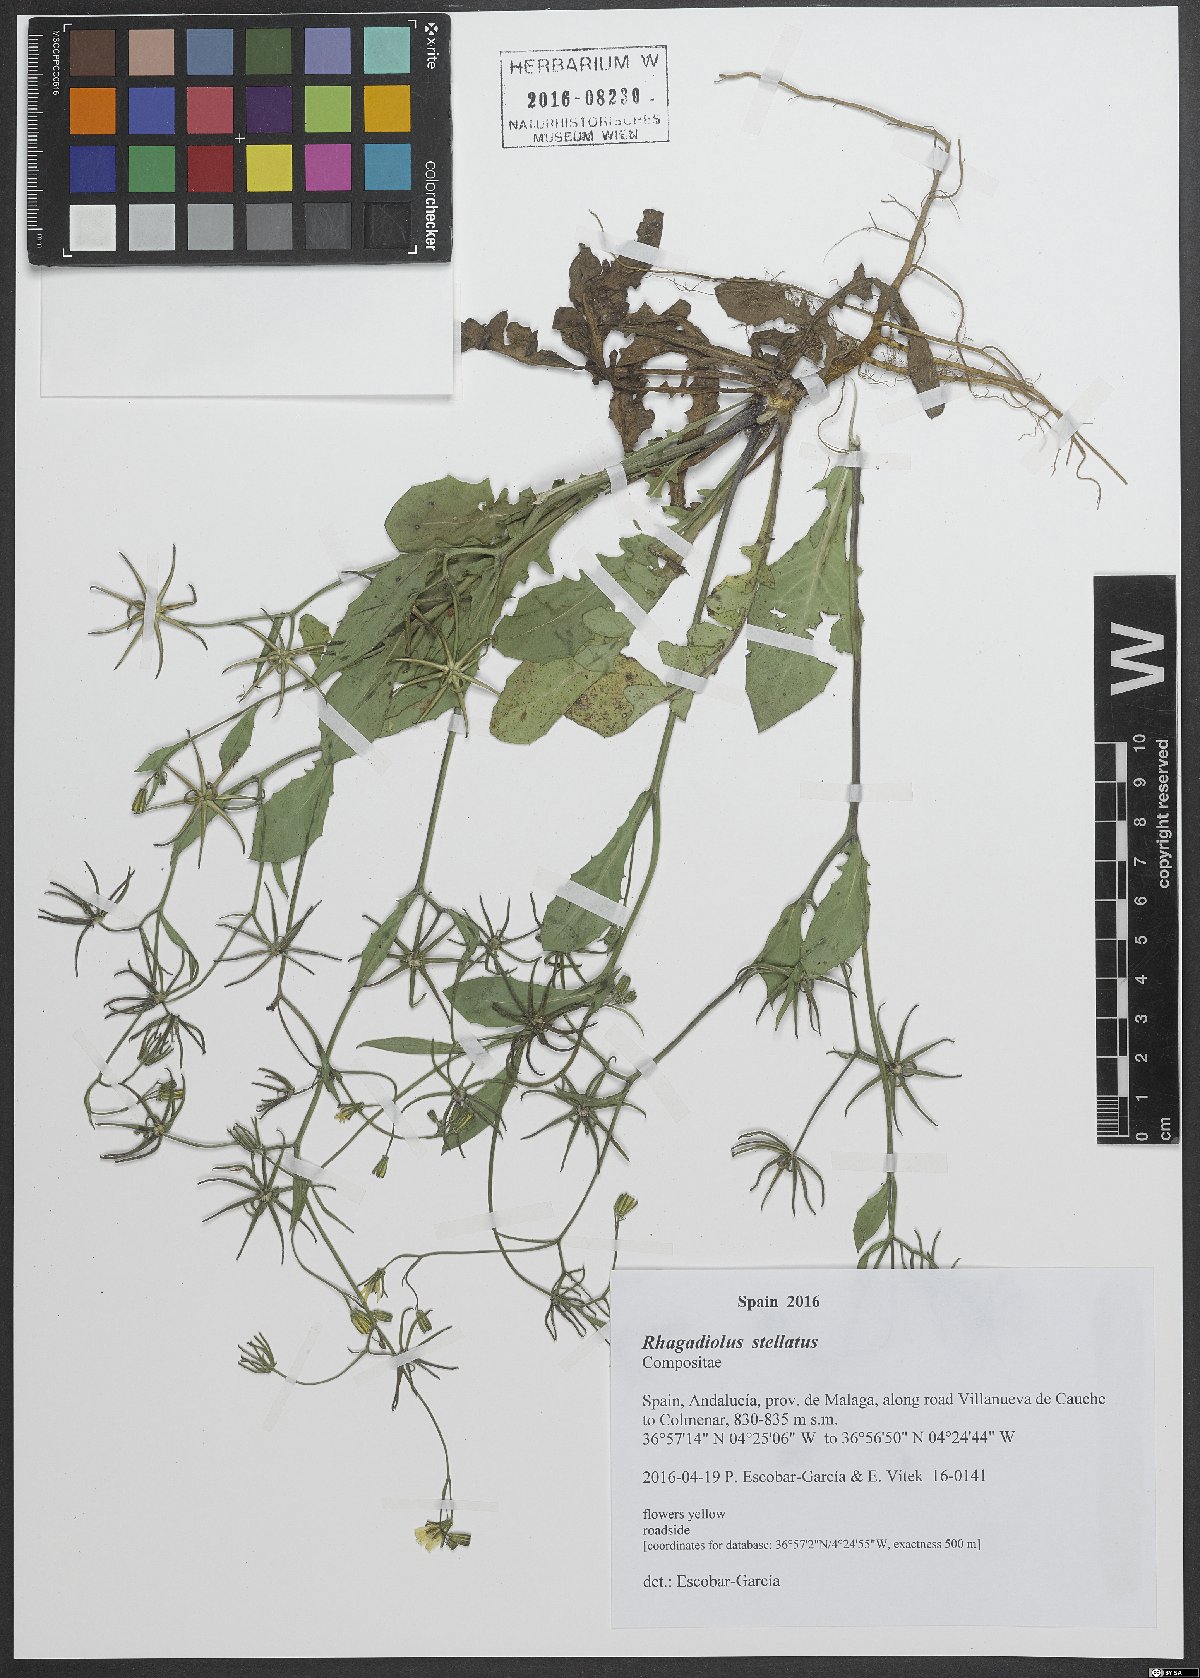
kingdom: Plantae
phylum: Tracheophyta
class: Magnoliopsida
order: Asterales
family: Asteraceae
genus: Rhagadiolus
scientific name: Rhagadiolus stellatus
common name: Star hawkbit
